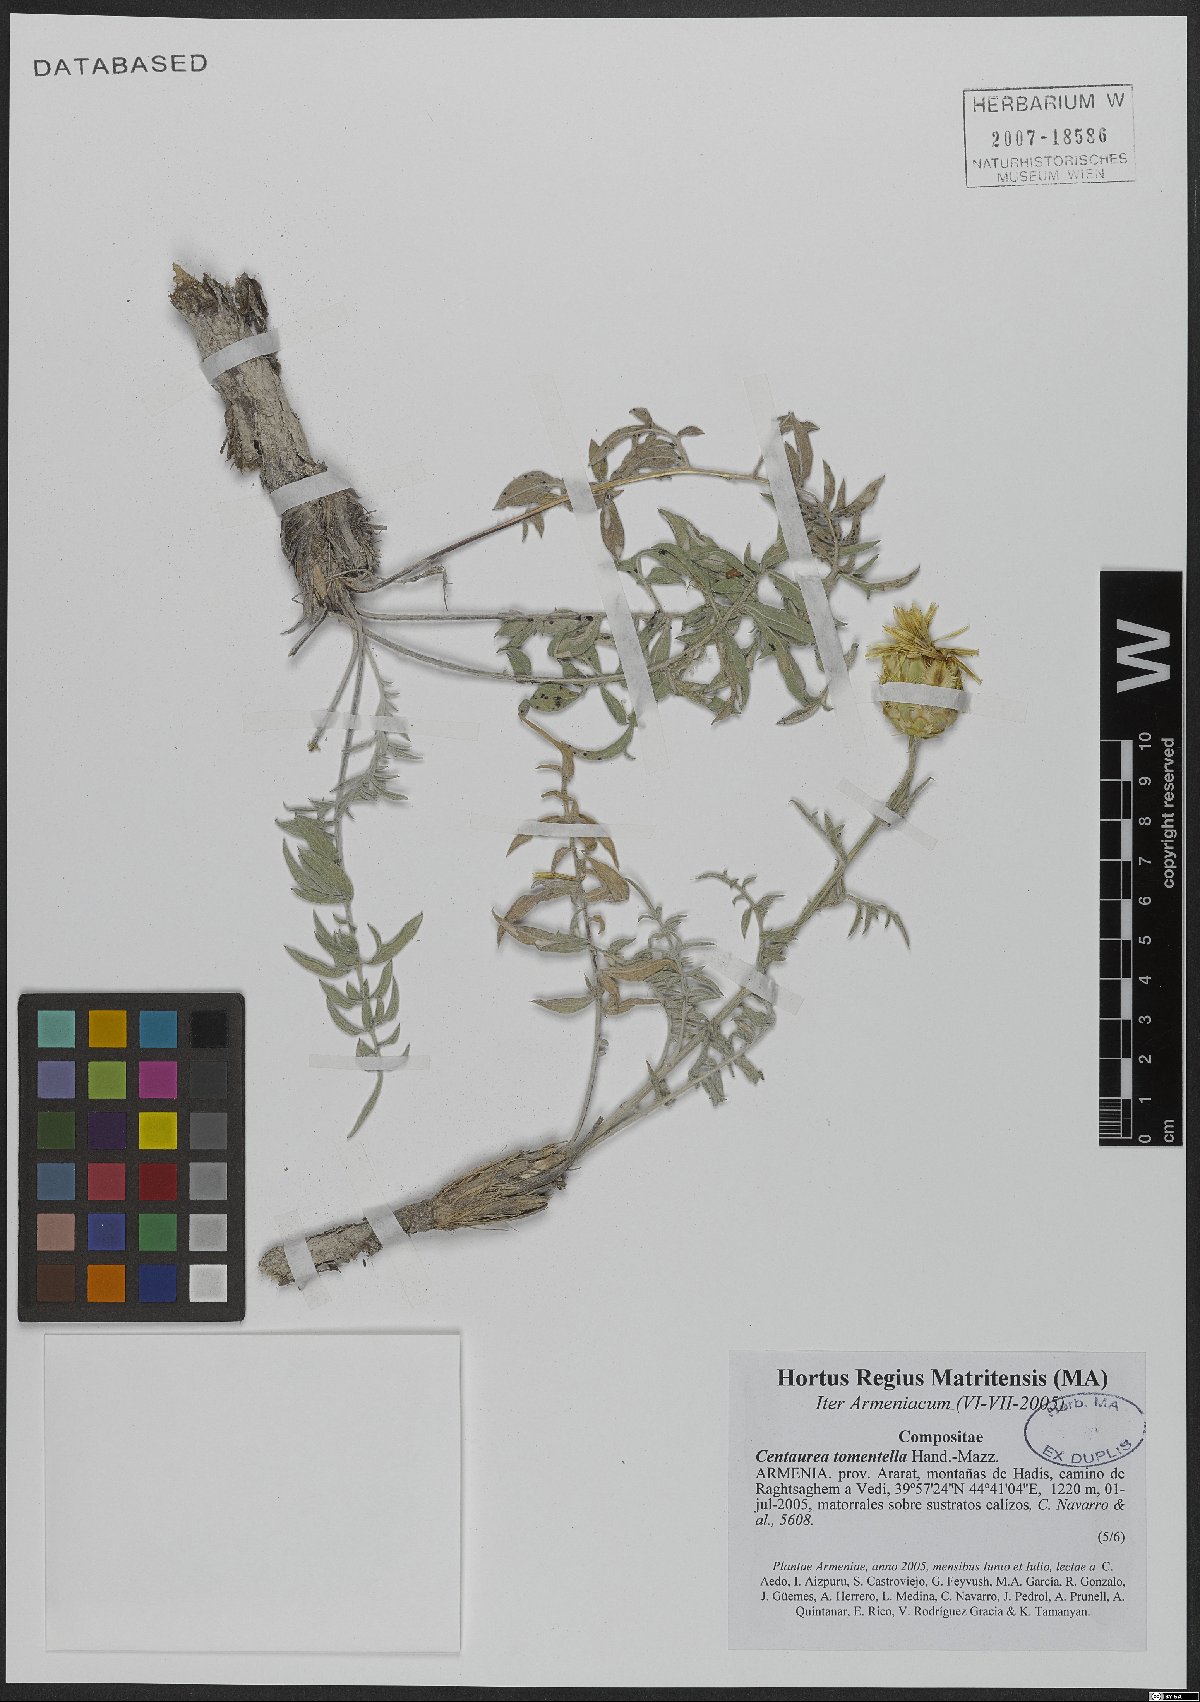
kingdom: Plantae
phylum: Tracheophyta
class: Magnoliopsida
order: Asterales
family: Asteraceae
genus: Centaurea
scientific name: Centaurea tomentella
